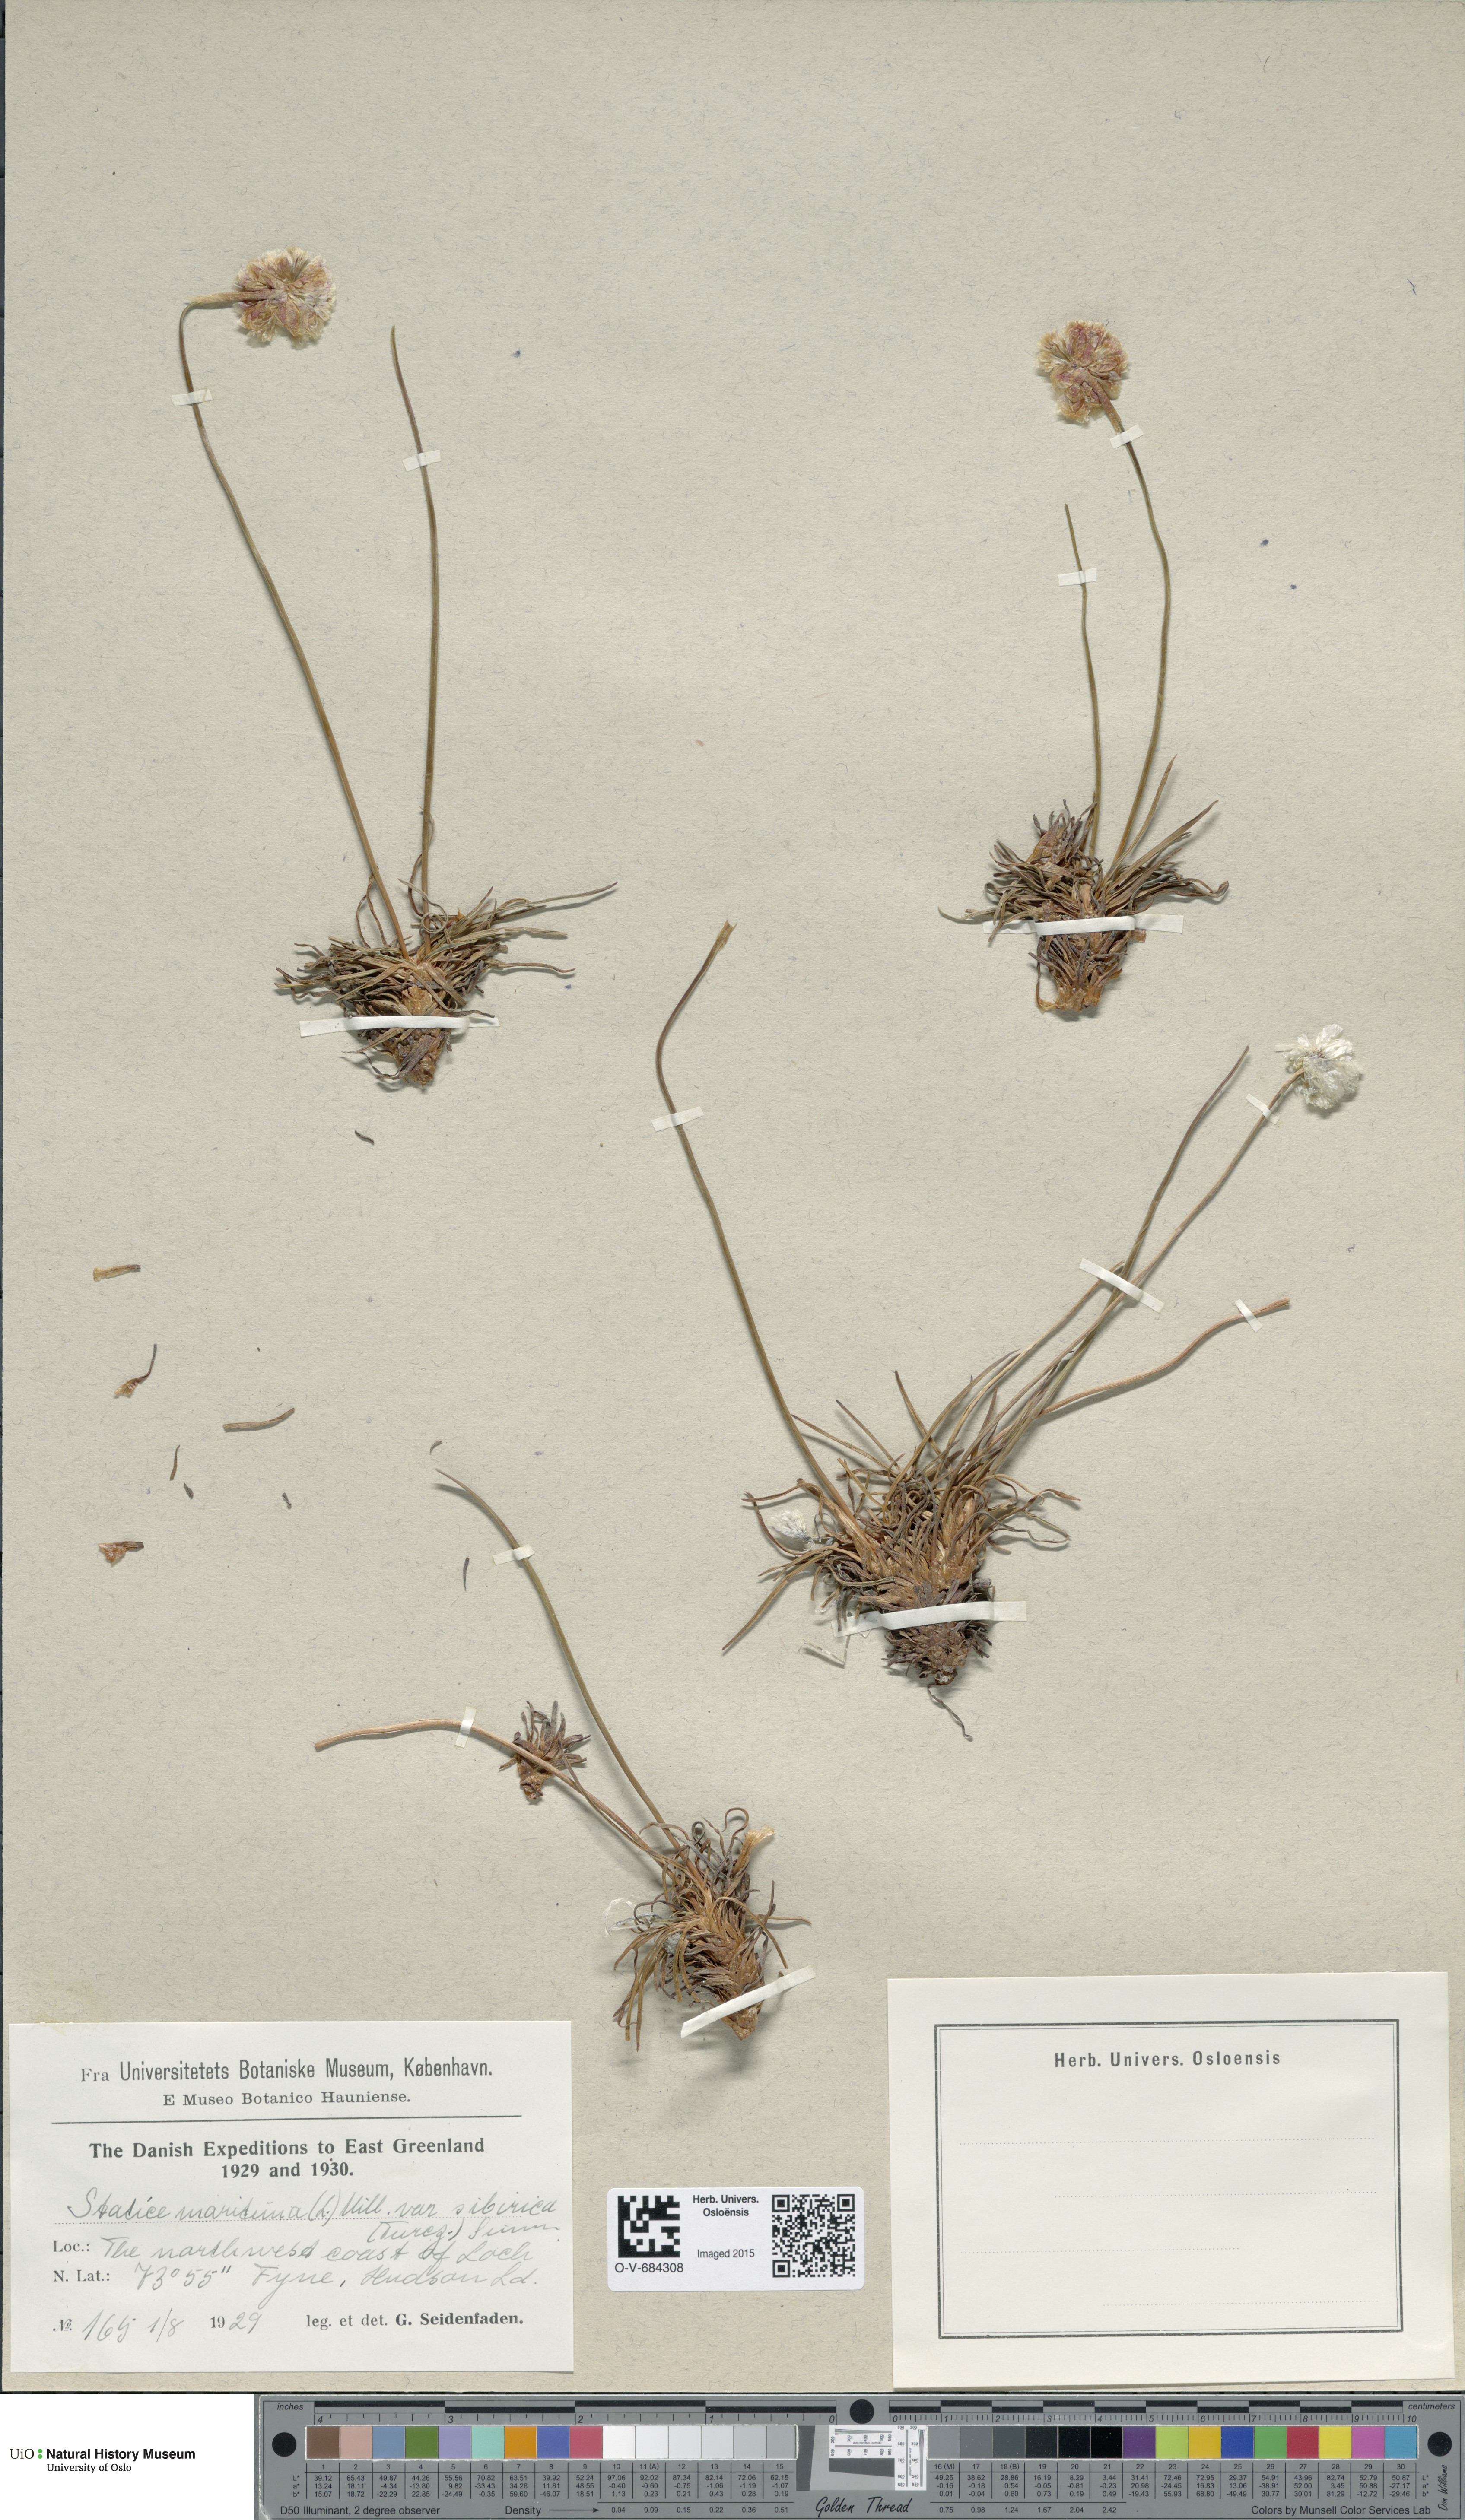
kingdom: Plantae
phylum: Tracheophyta
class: Magnoliopsida
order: Caryophyllales
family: Plumbaginaceae
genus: Armeria
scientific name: Armeria maritima
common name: Thrift
